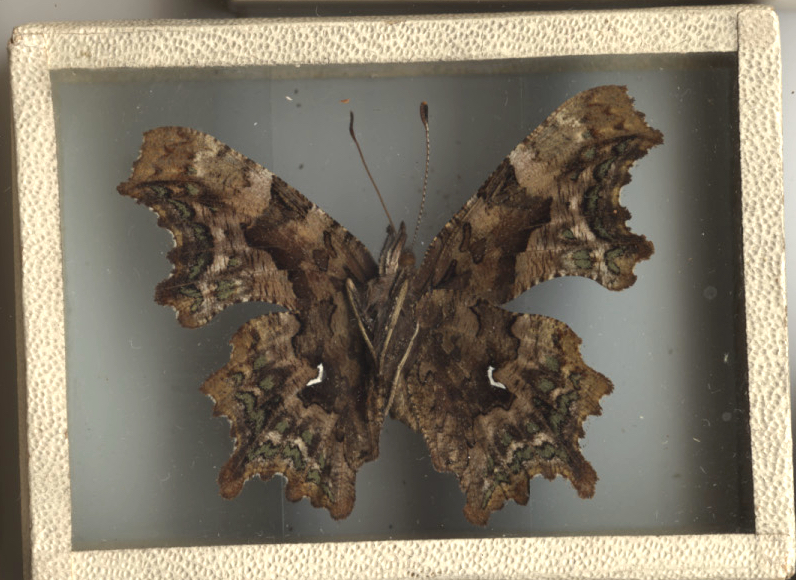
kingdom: Animalia
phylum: Arthropoda
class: Insecta
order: Lepidoptera
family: Nymphalidae
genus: Polygonia
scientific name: Polygonia faunus
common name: Green Comma
